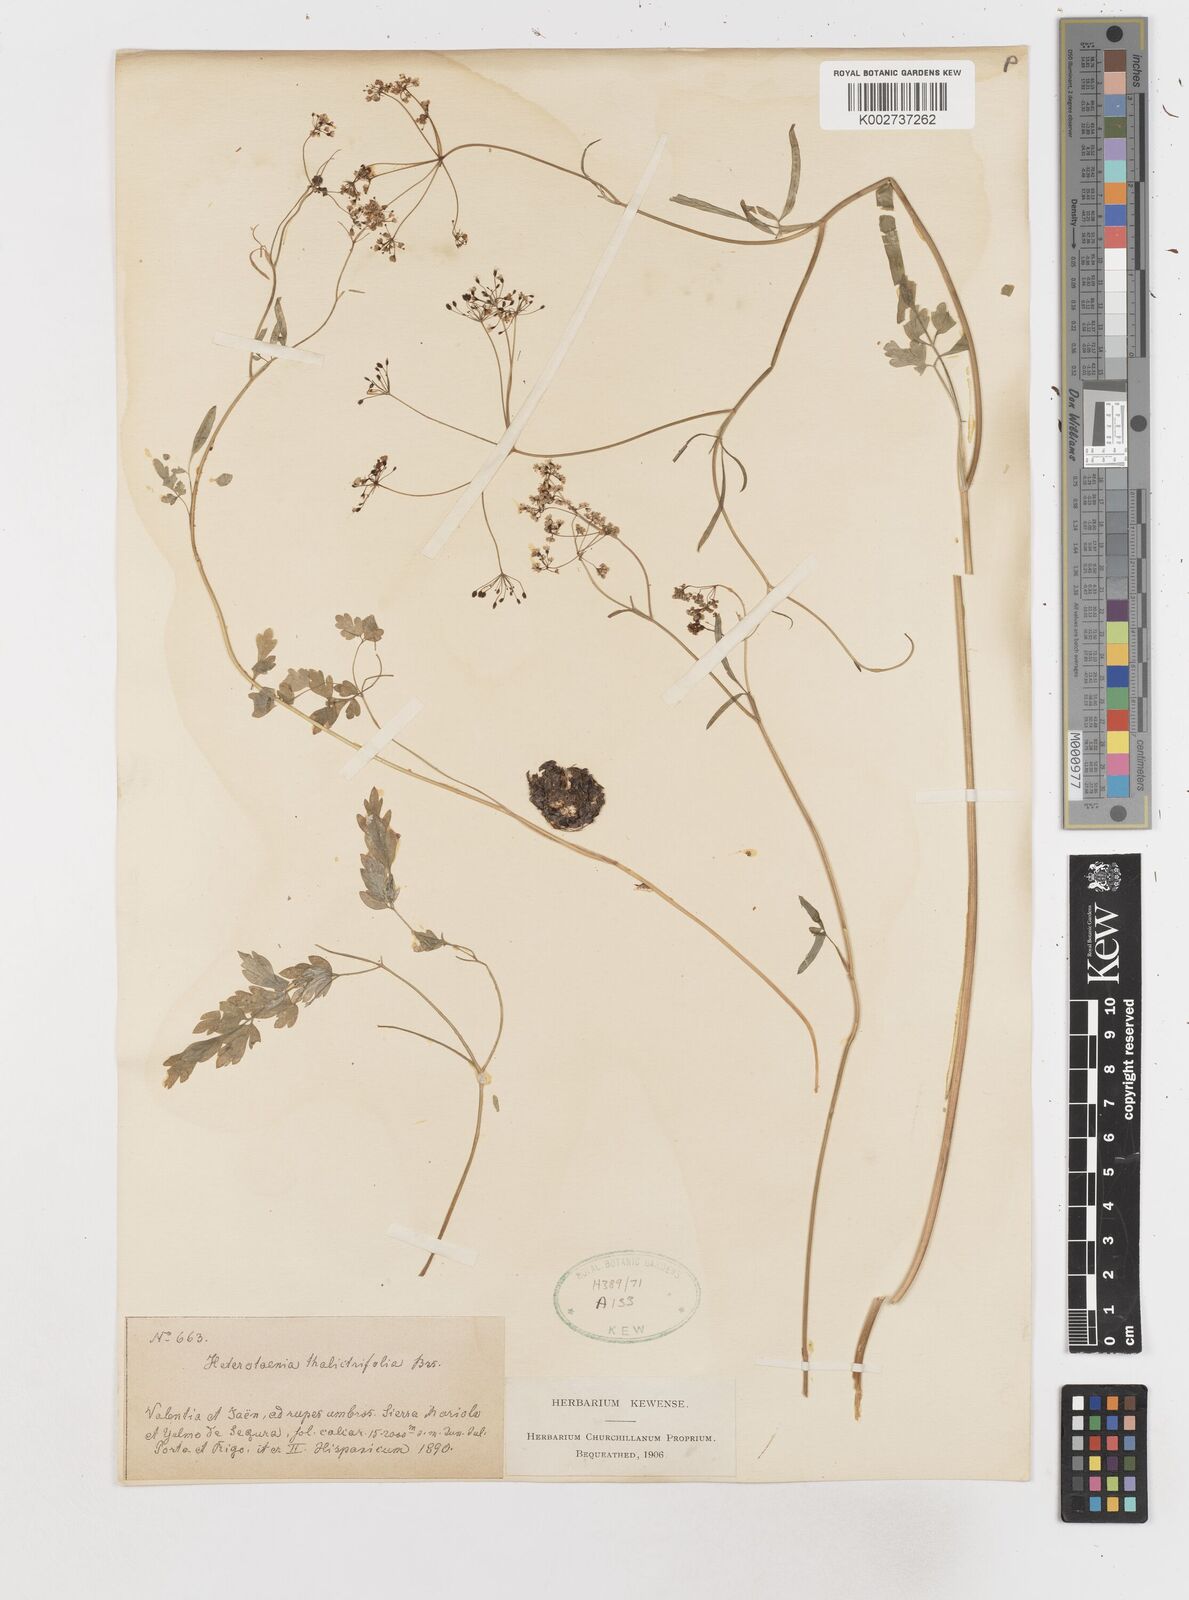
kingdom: Plantae
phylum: Tracheophyta
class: Magnoliopsida
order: Apiales
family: Apiaceae
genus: Conopodium
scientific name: Conopodium thalictrifolium
